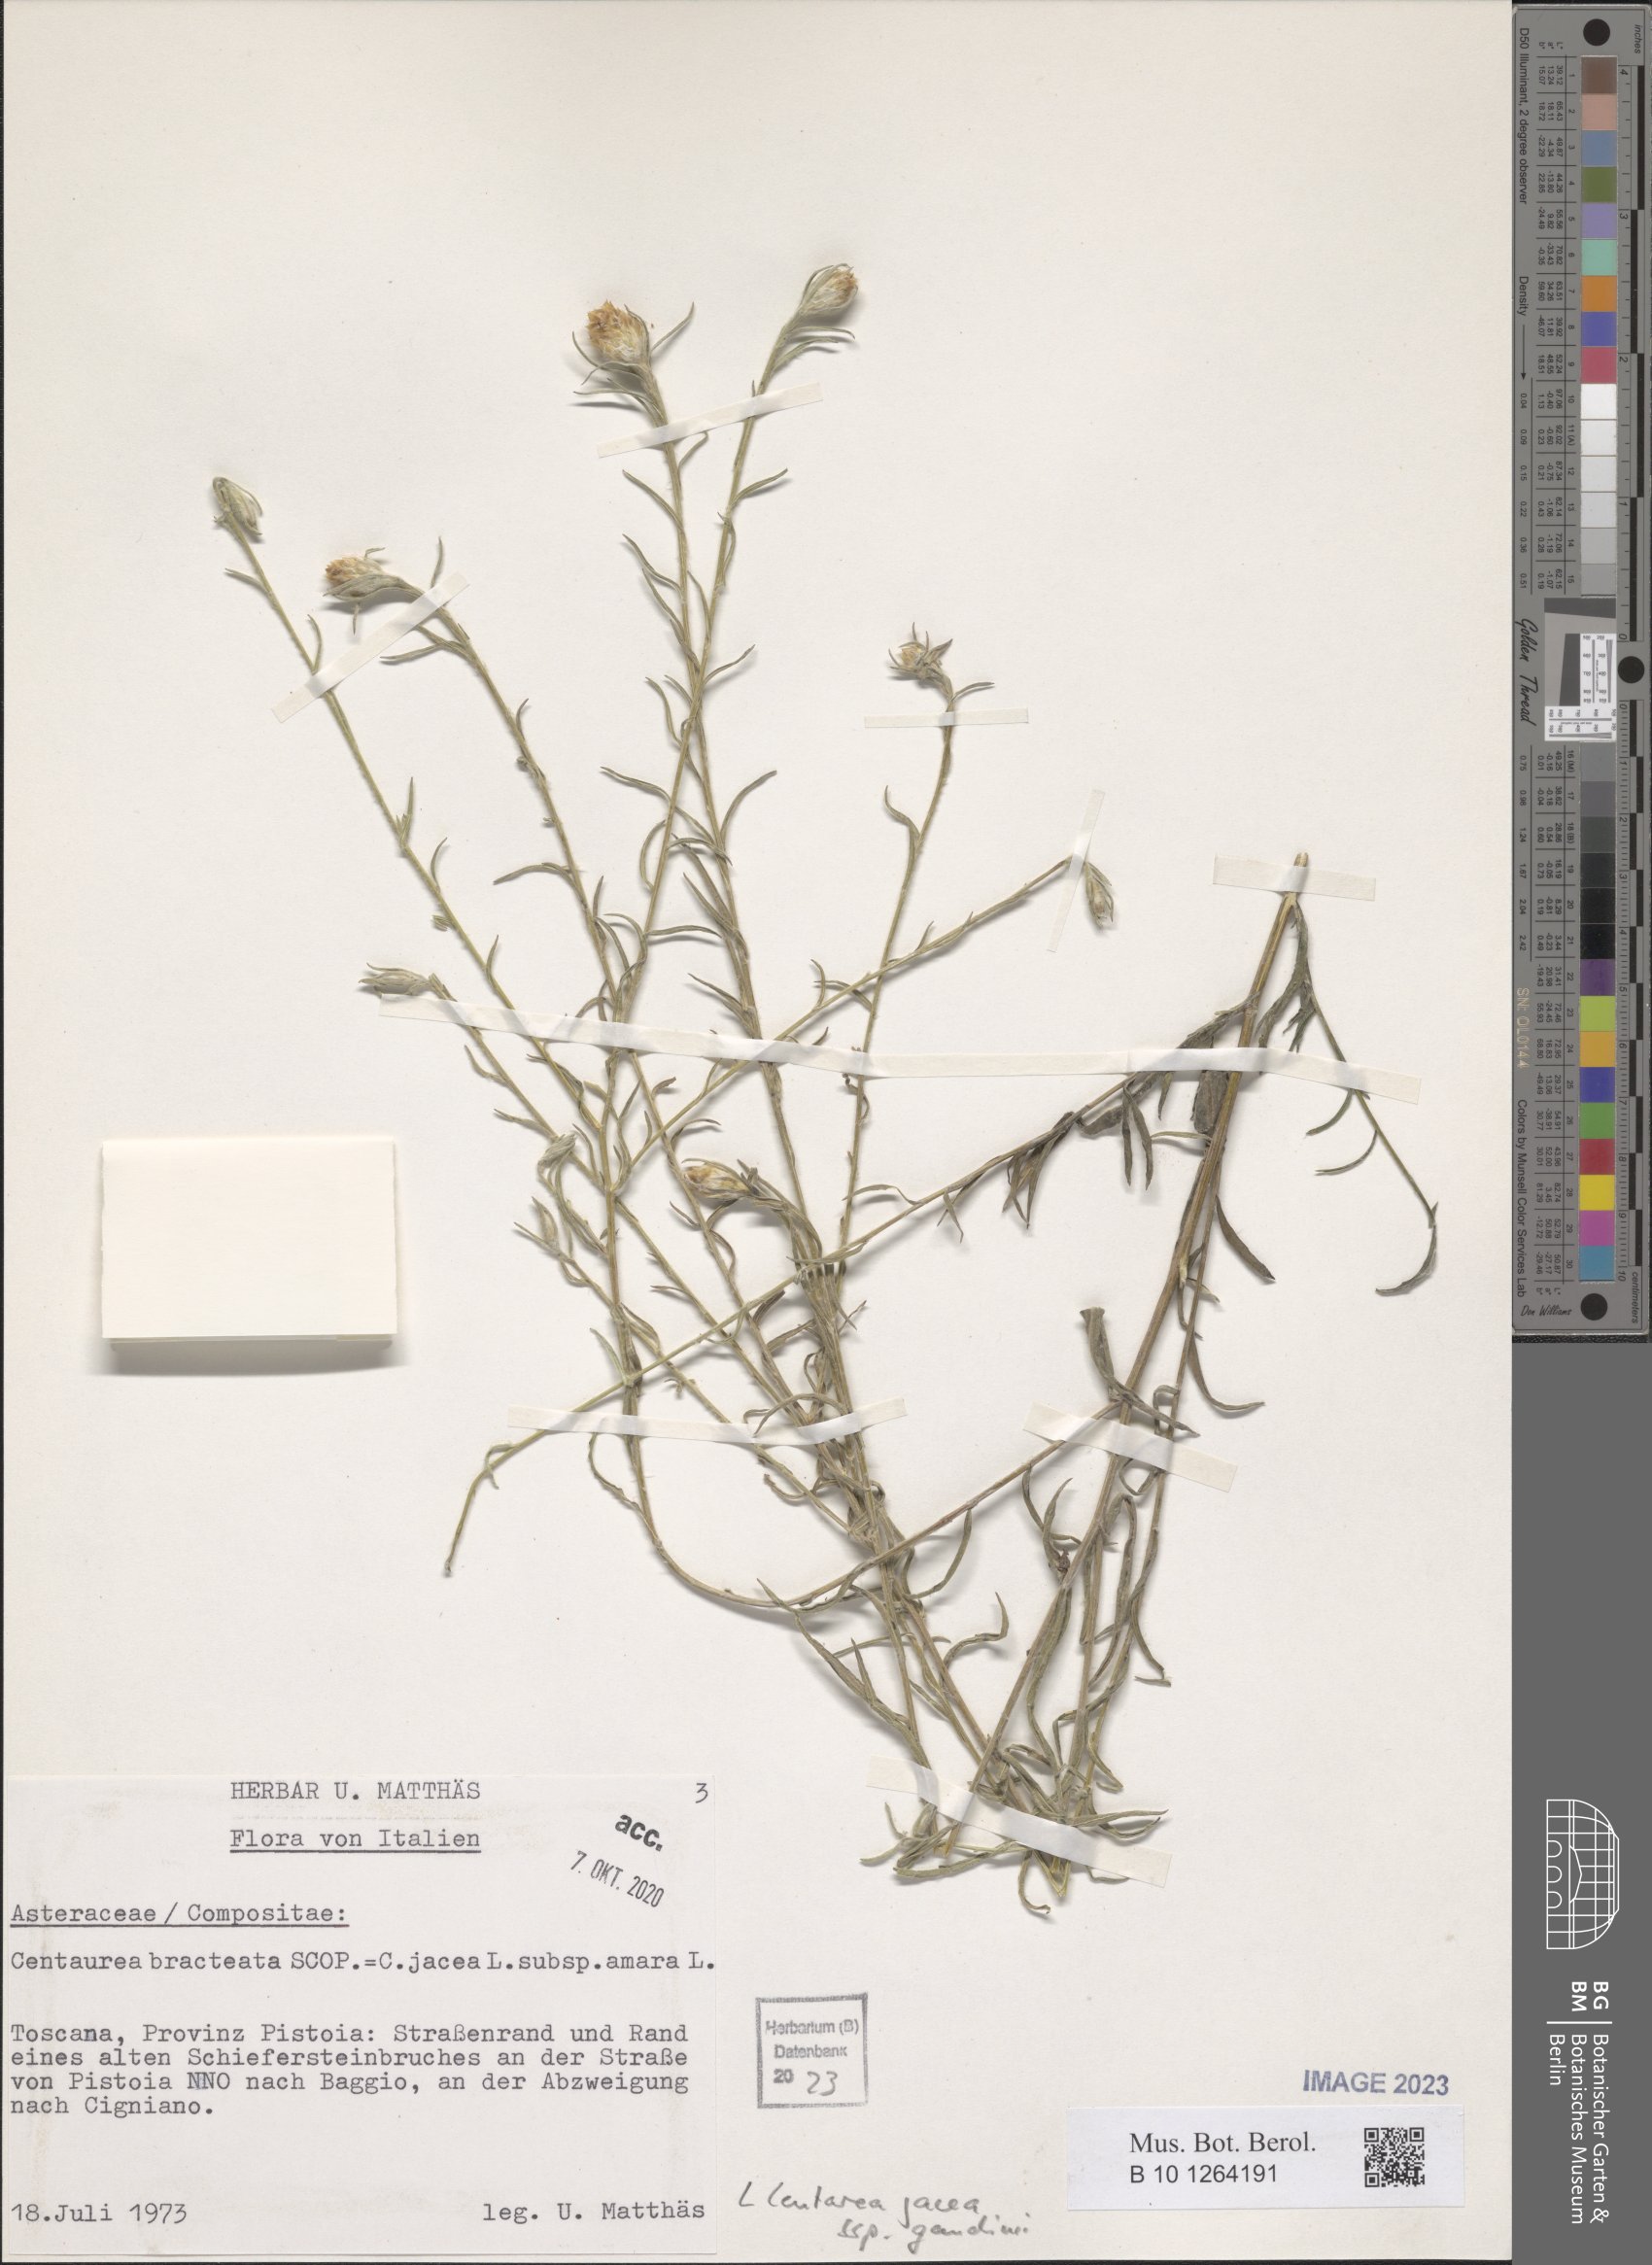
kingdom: Plantae
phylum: Tracheophyta
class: Magnoliopsida
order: Asterales
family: Asteraceae
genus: Centaurea
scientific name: Centaurea jacea
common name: Brown knapweed
